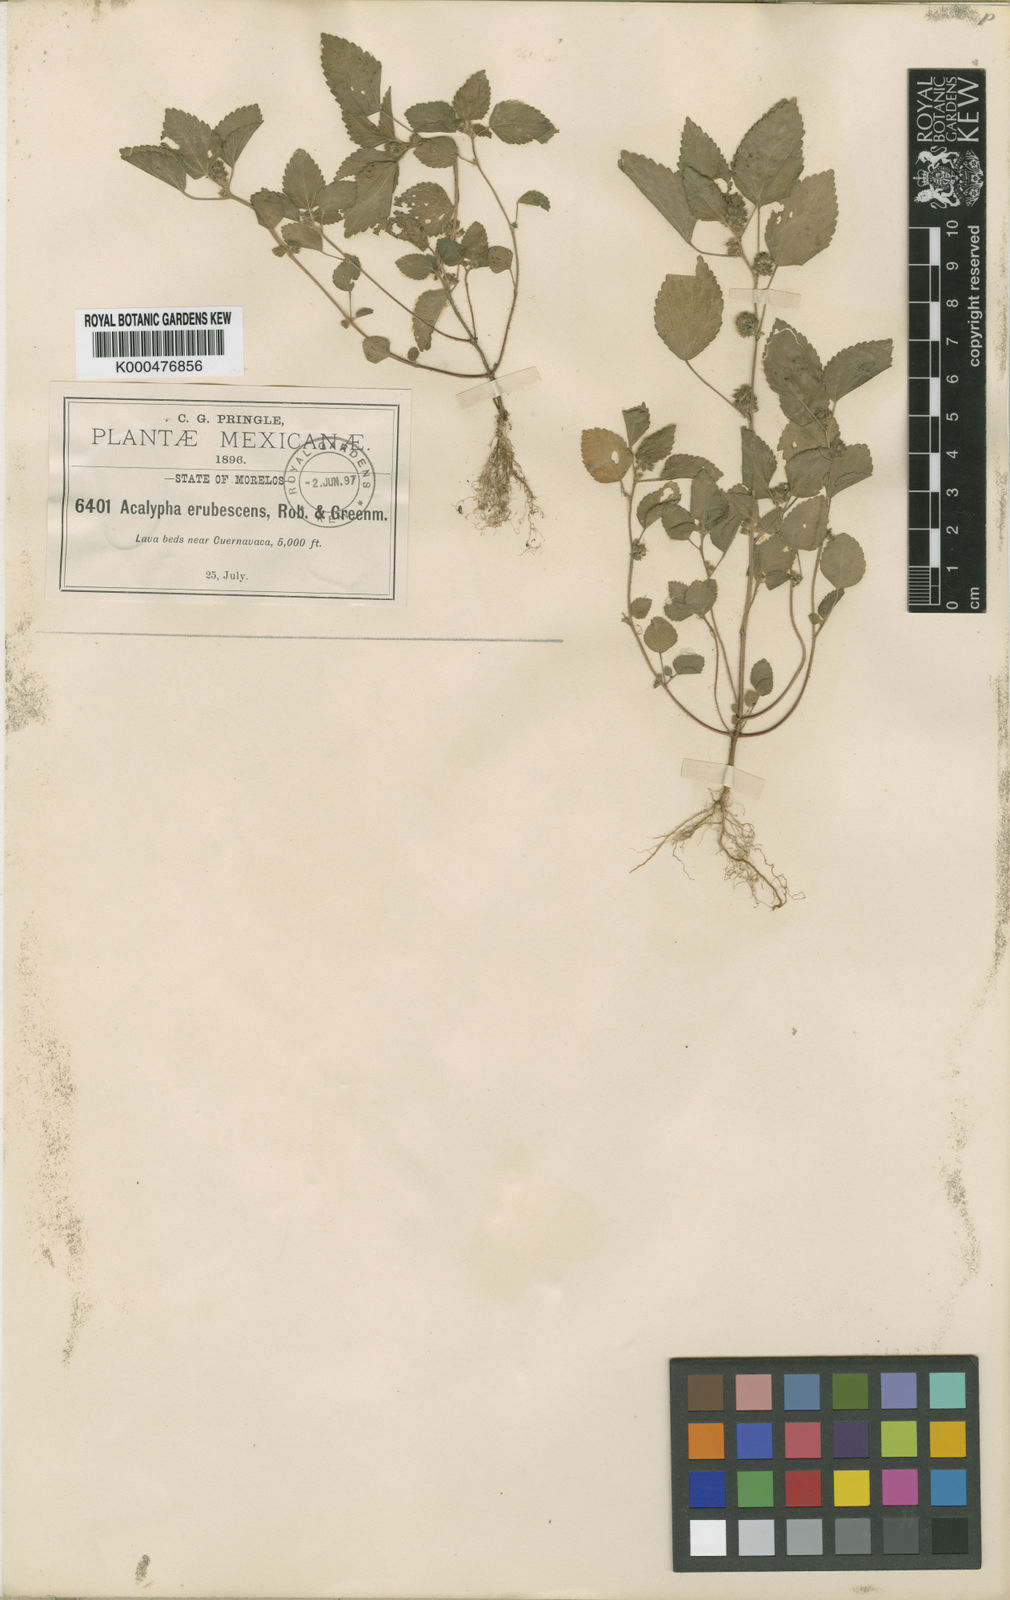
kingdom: Plantae
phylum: Tracheophyta
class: Magnoliopsida
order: Malpighiales
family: Euphorbiaceae
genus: Acalypha
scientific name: Acalypha poiretii
